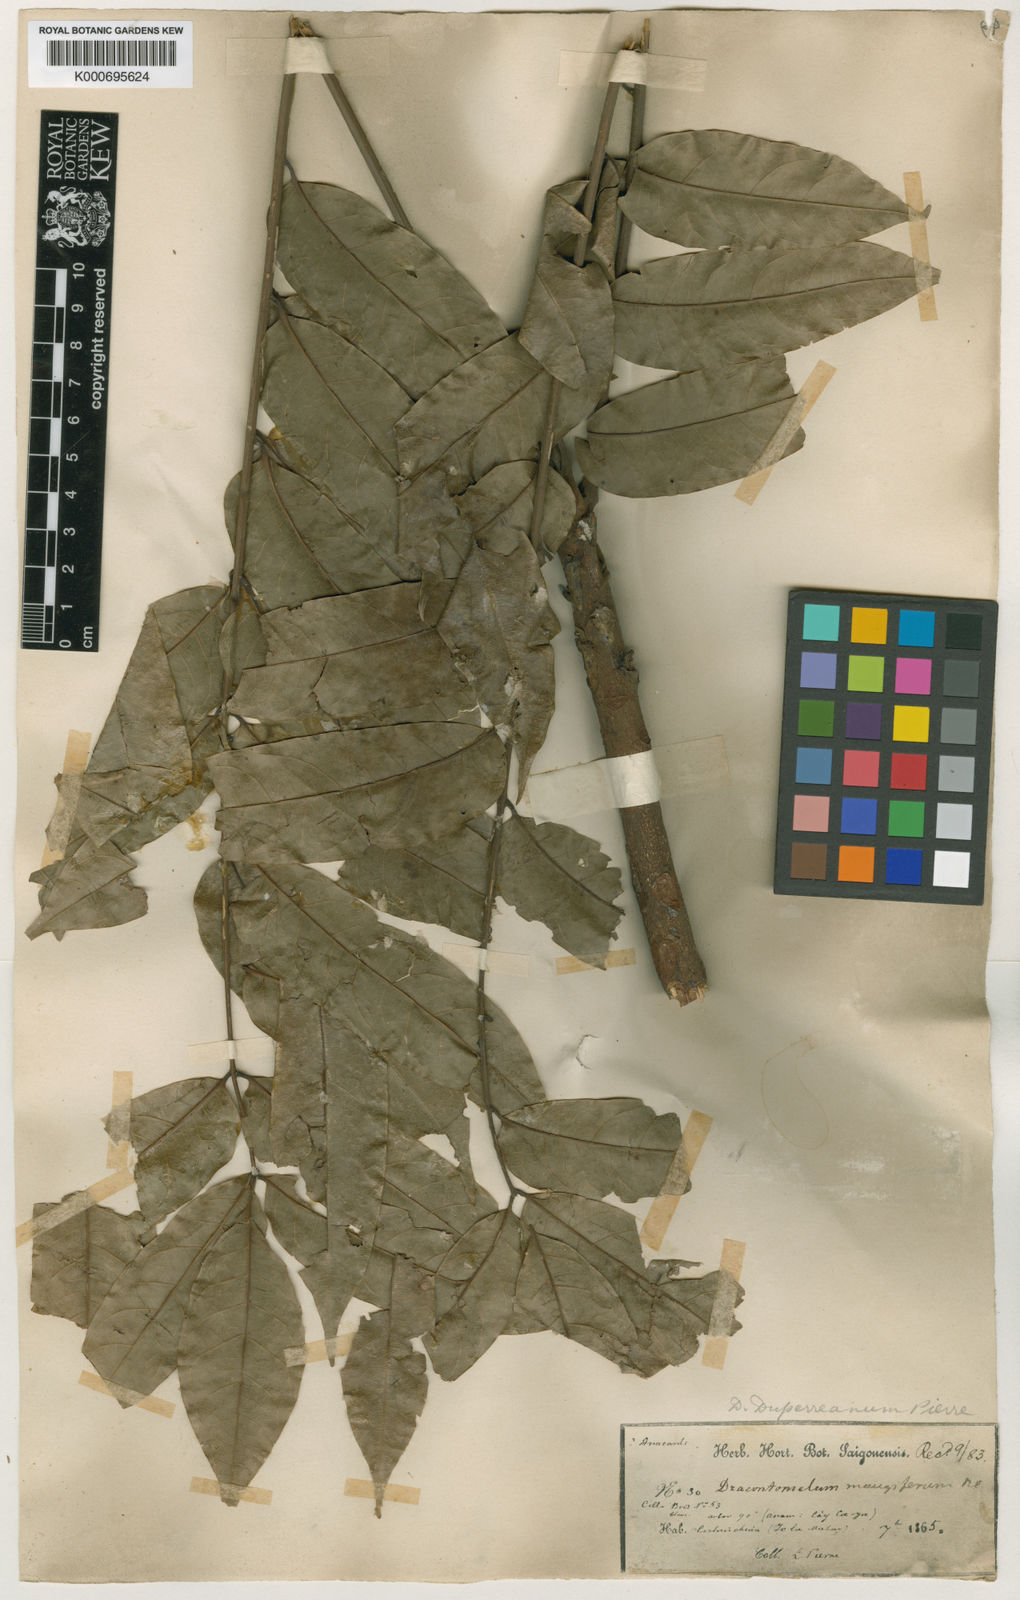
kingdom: Plantae
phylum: Tracheophyta
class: Magnoliopsida
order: Sapindales
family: Anacardiaceae
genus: Dracontomelon
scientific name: Dracontomelon duperreanum
